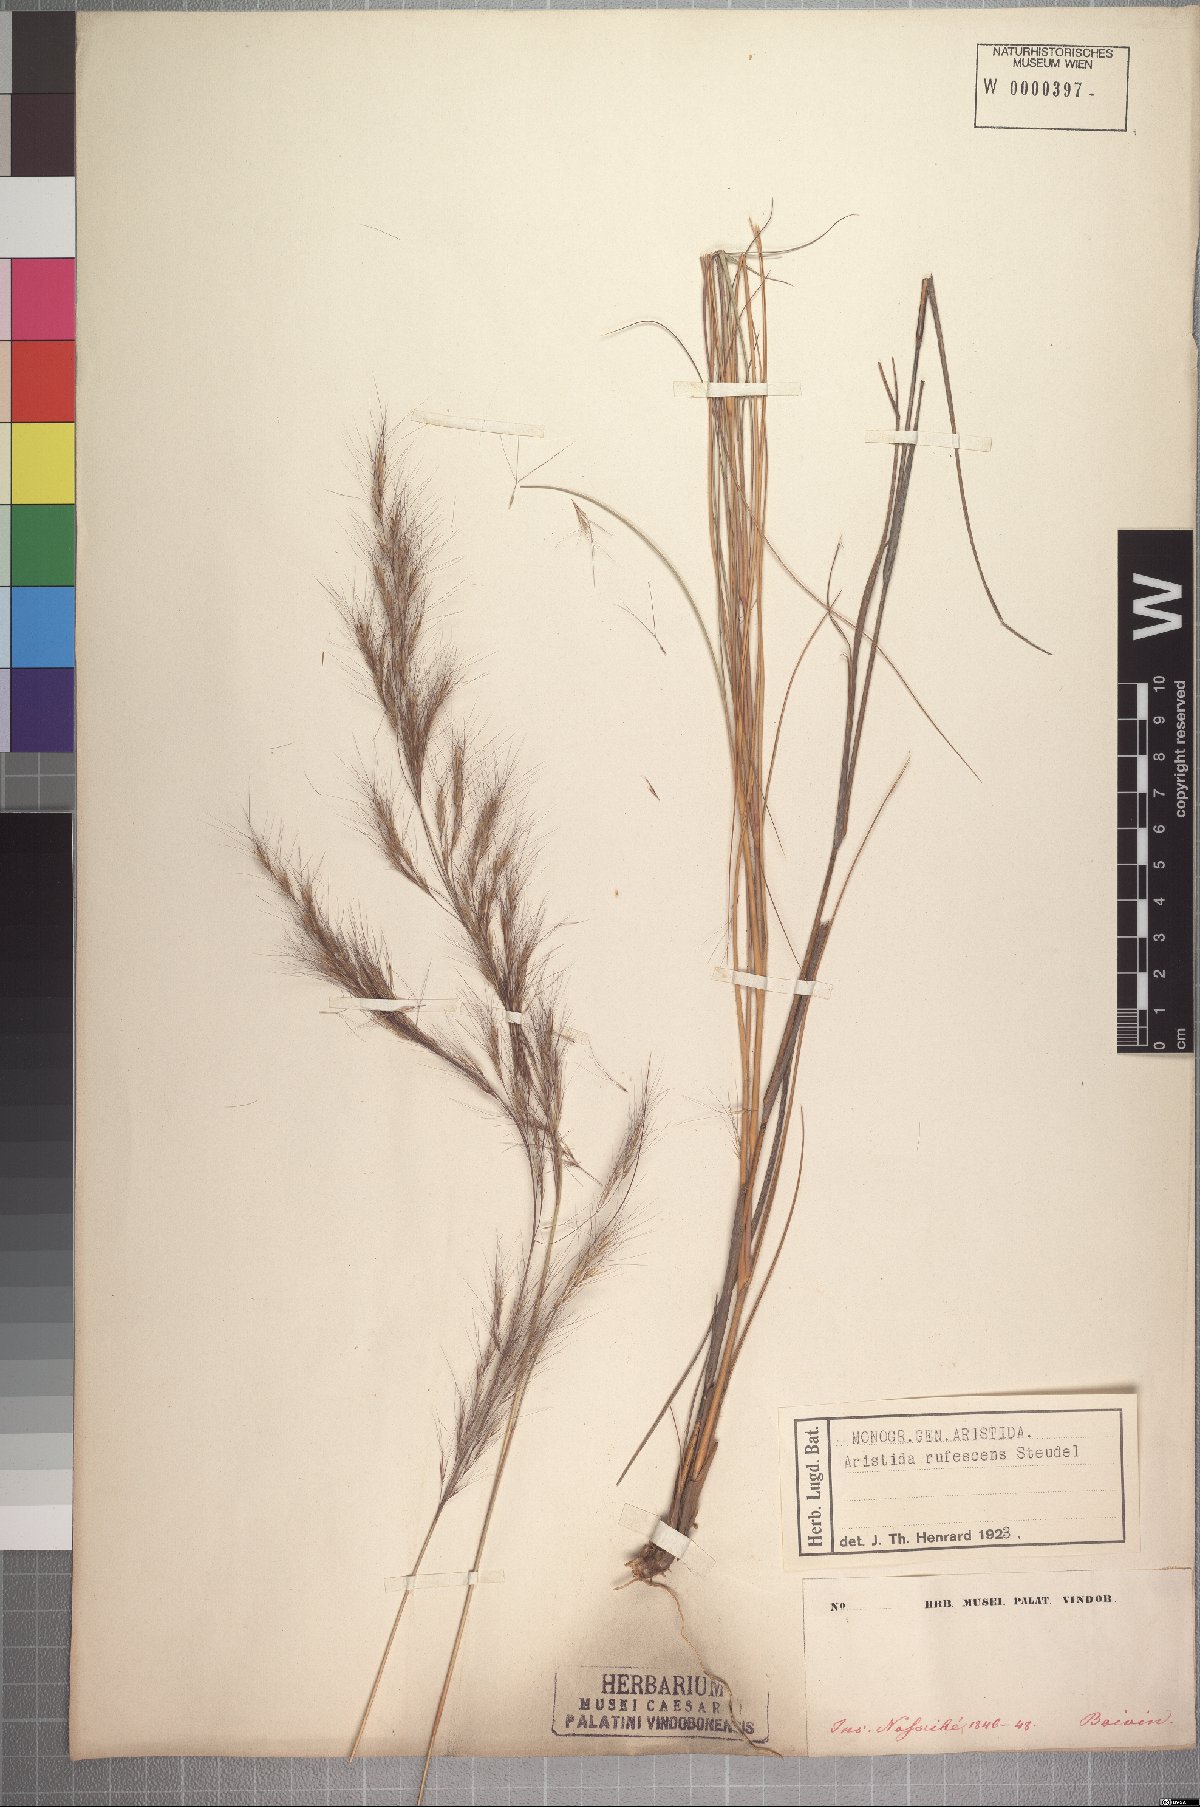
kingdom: Plantae
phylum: Tracheophyta
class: Liliopsida
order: Poales
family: Poaceae
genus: Aristida
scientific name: Aristida rufescens
